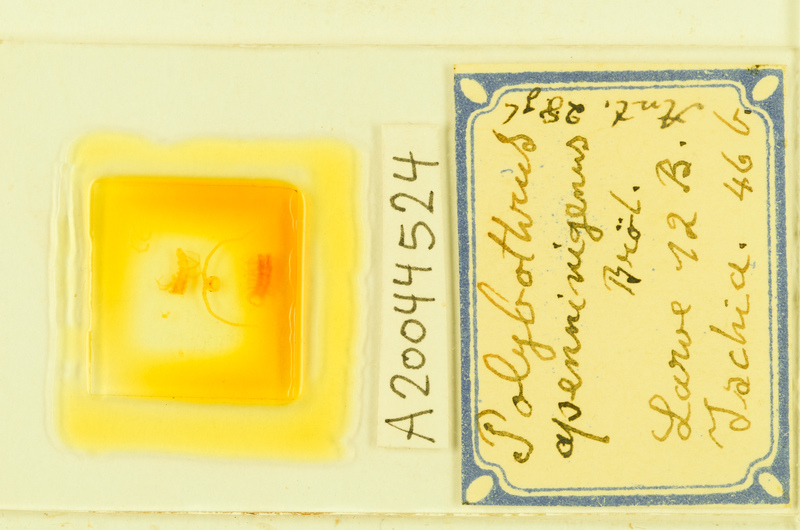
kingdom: Animalia
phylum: Arthropoda
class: Chilopoda
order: Lithobiomorpha
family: Lithobiidae
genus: Polybothrus
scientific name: Polybothrus
